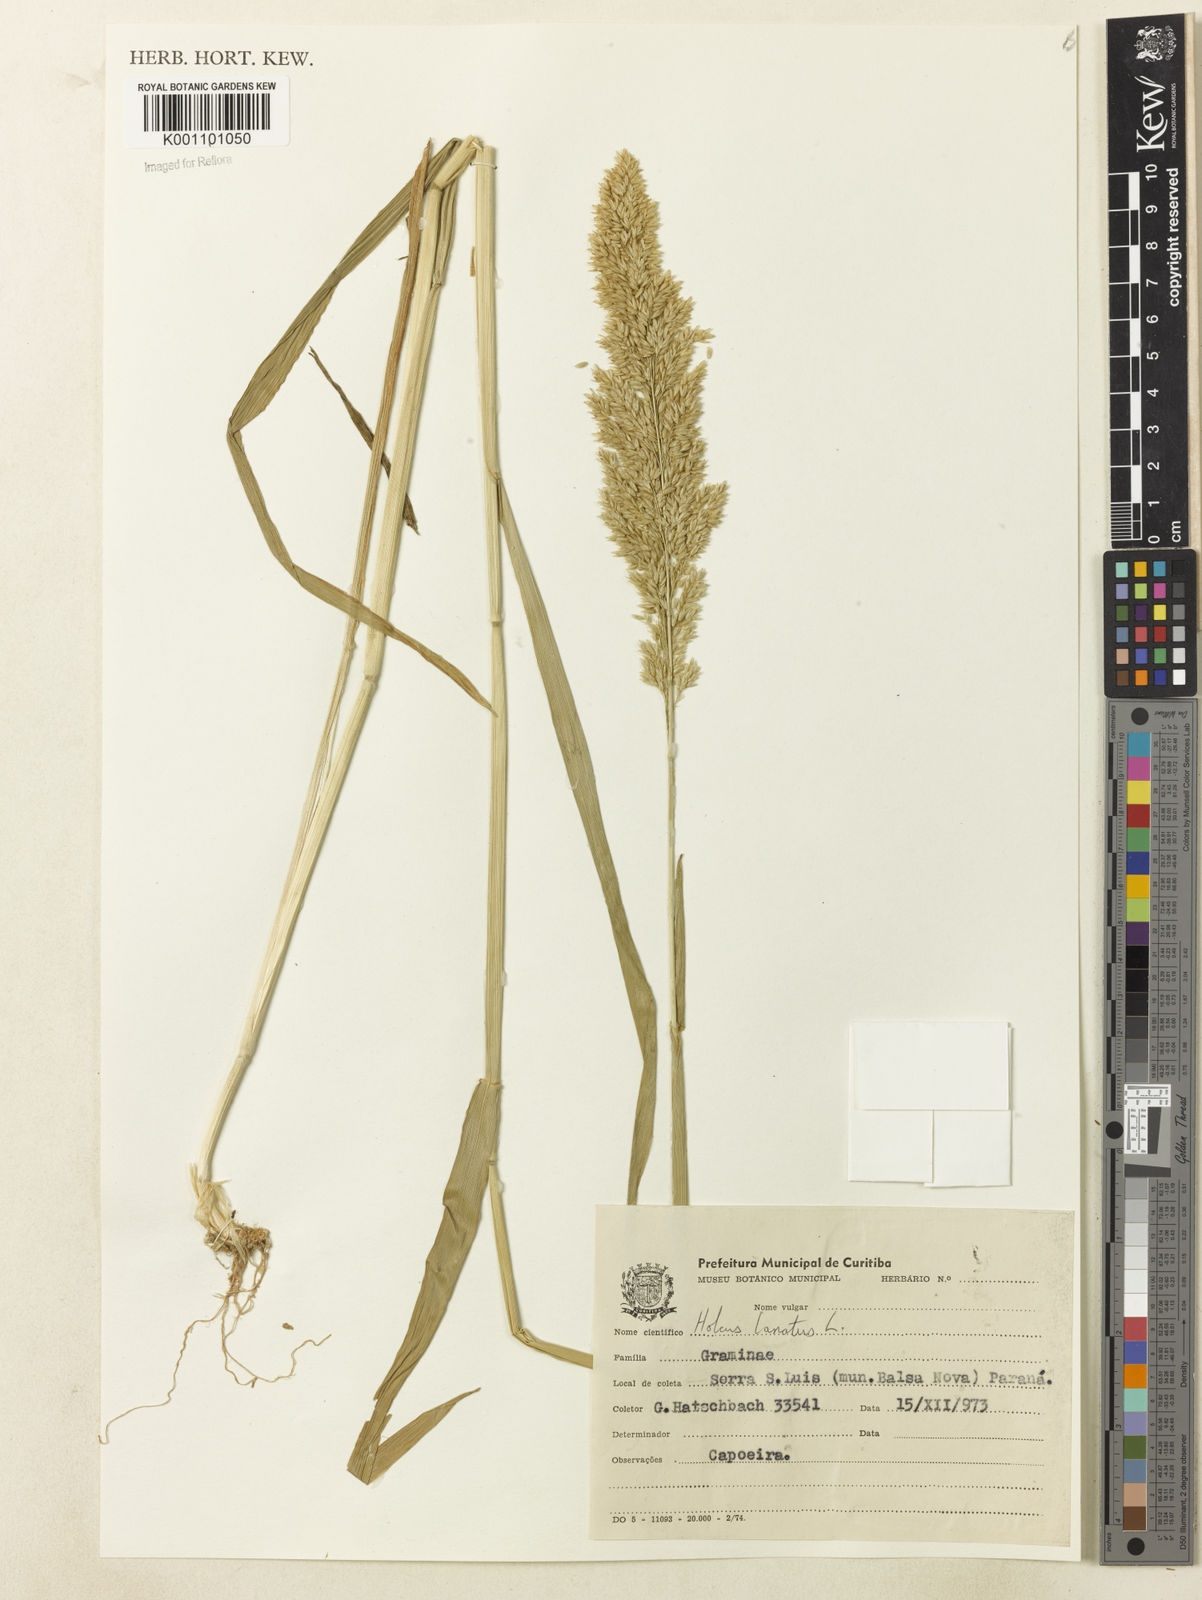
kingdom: Plantae
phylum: Tracheophyta
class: Liliopsida
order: Poales
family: Poaceae
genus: Holcus
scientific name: Holcus lanatus
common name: Yorkshire-fog
